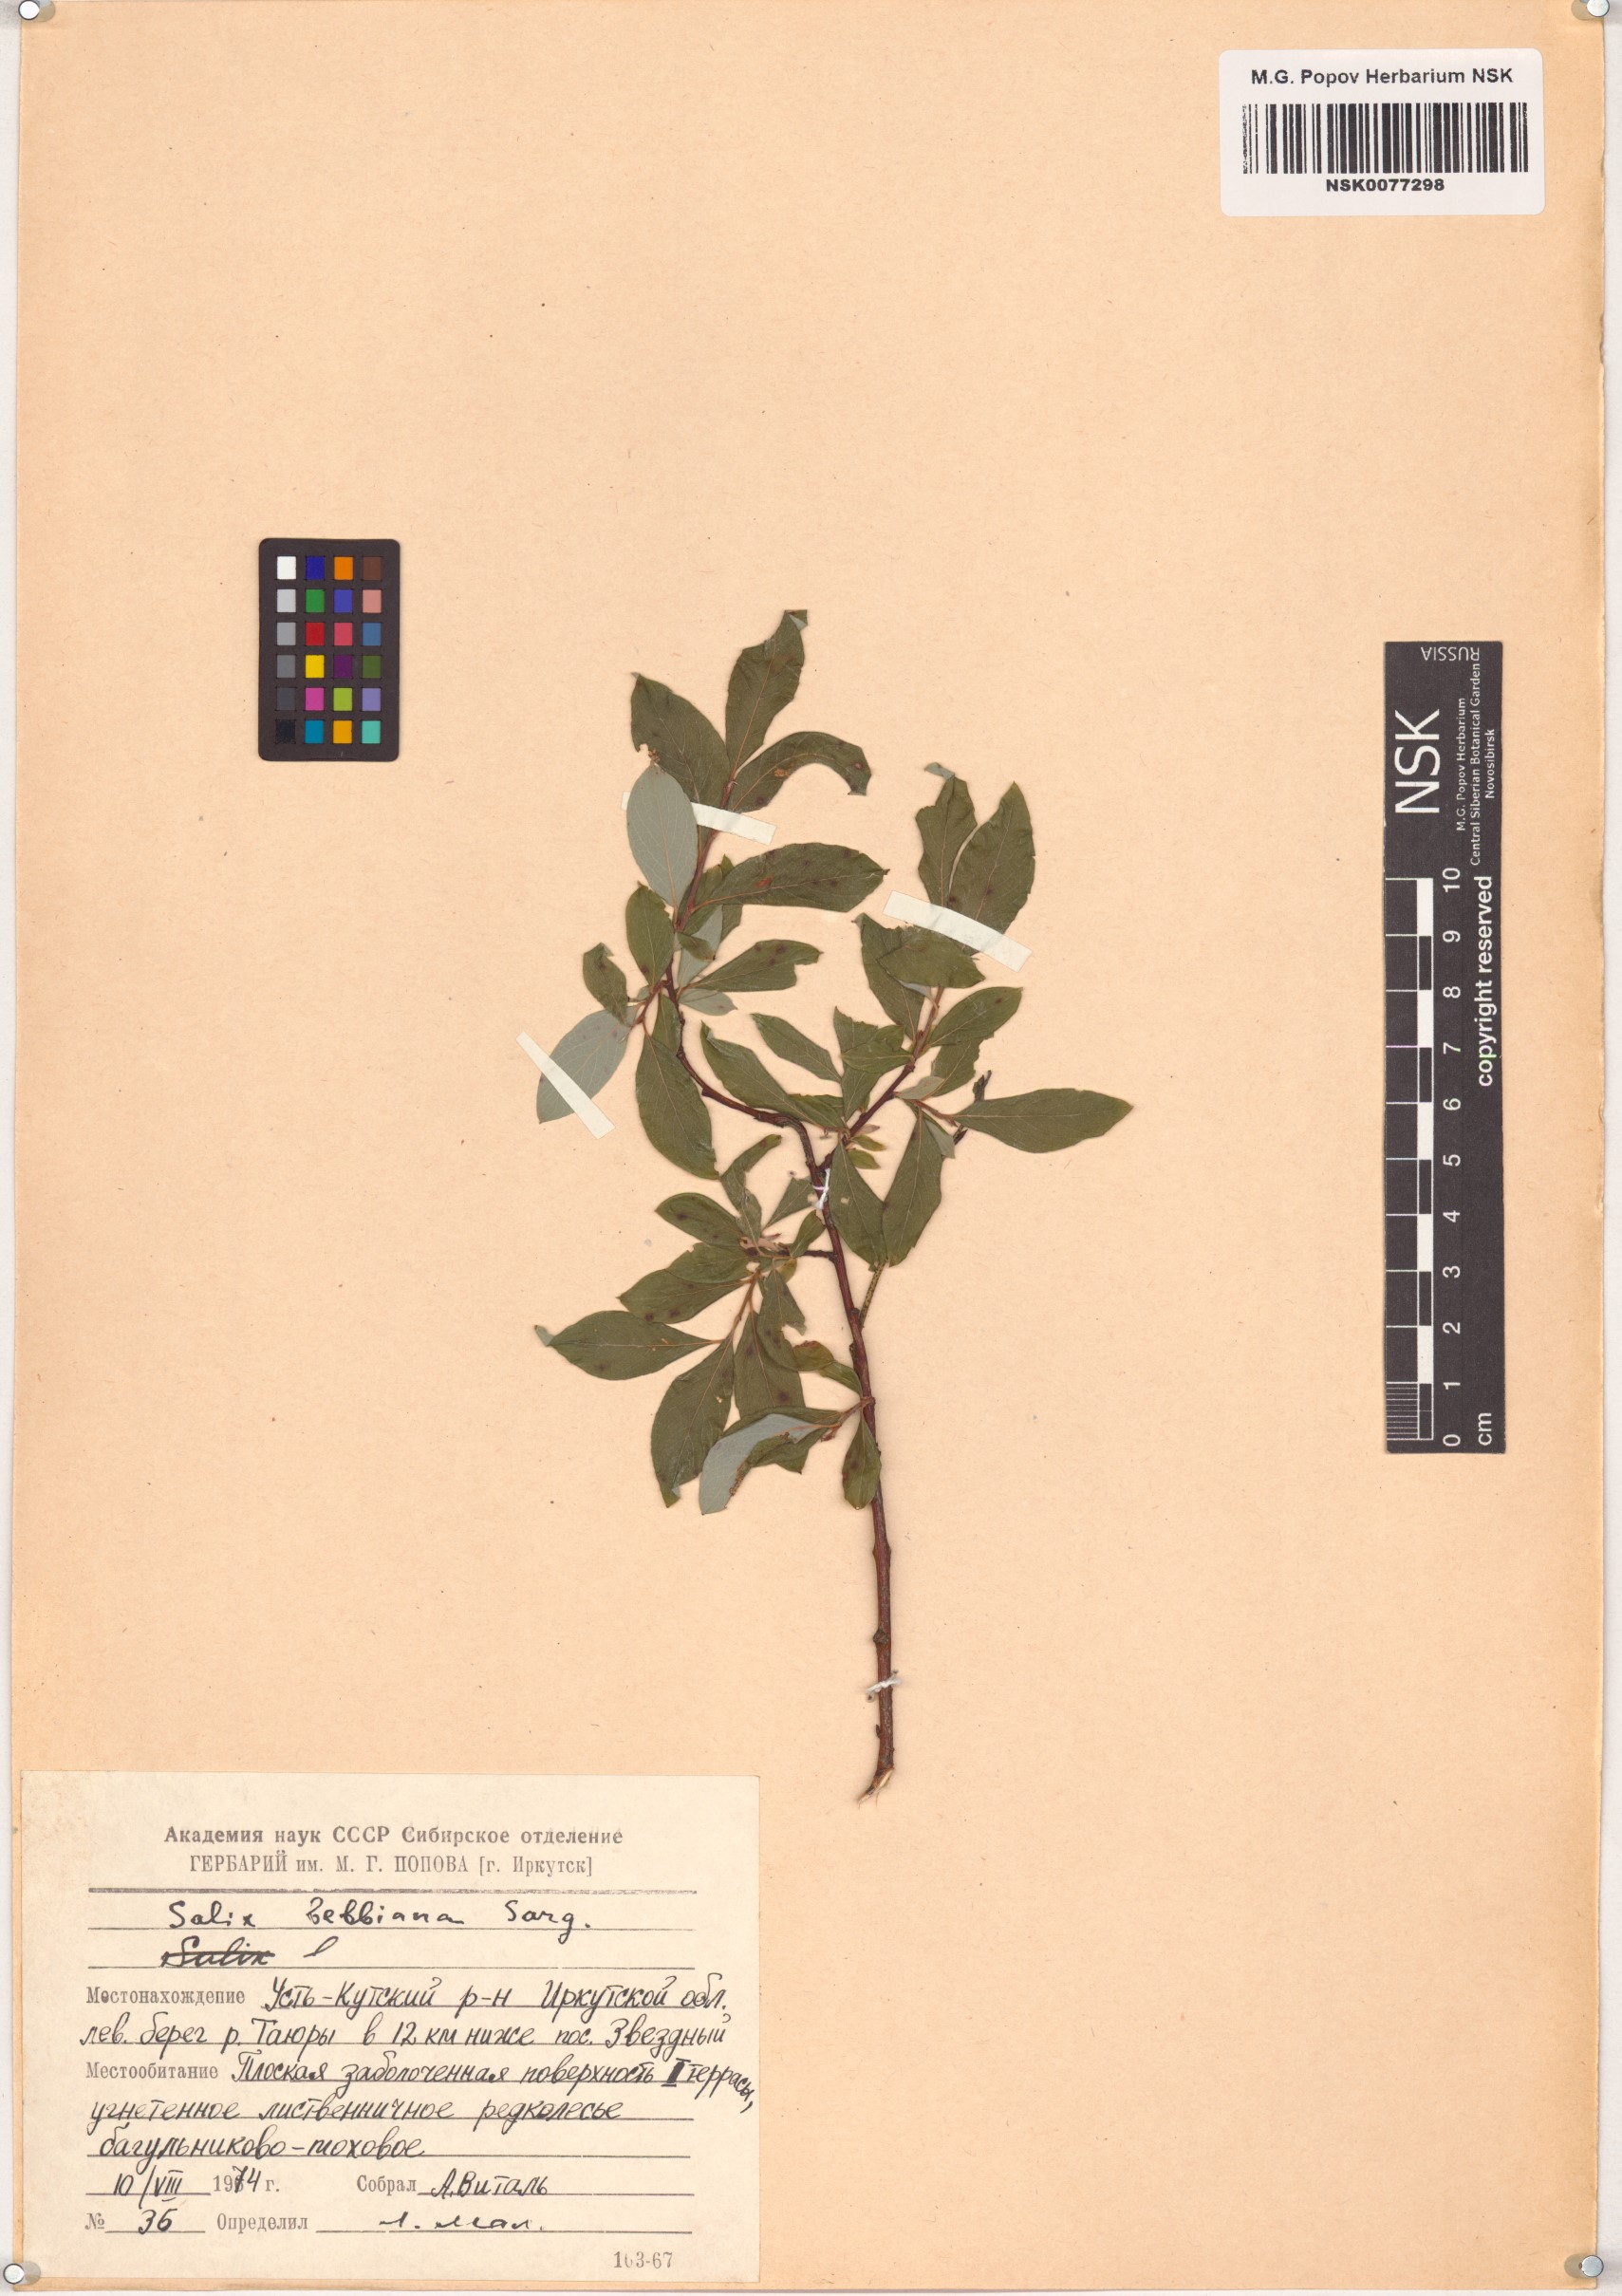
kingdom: Plantae
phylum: Tracheophyta
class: Magnoliopsida
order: Malpighiales
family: Salicaceae
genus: Salix
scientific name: Salix bebbiana
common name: Bebb's willow
